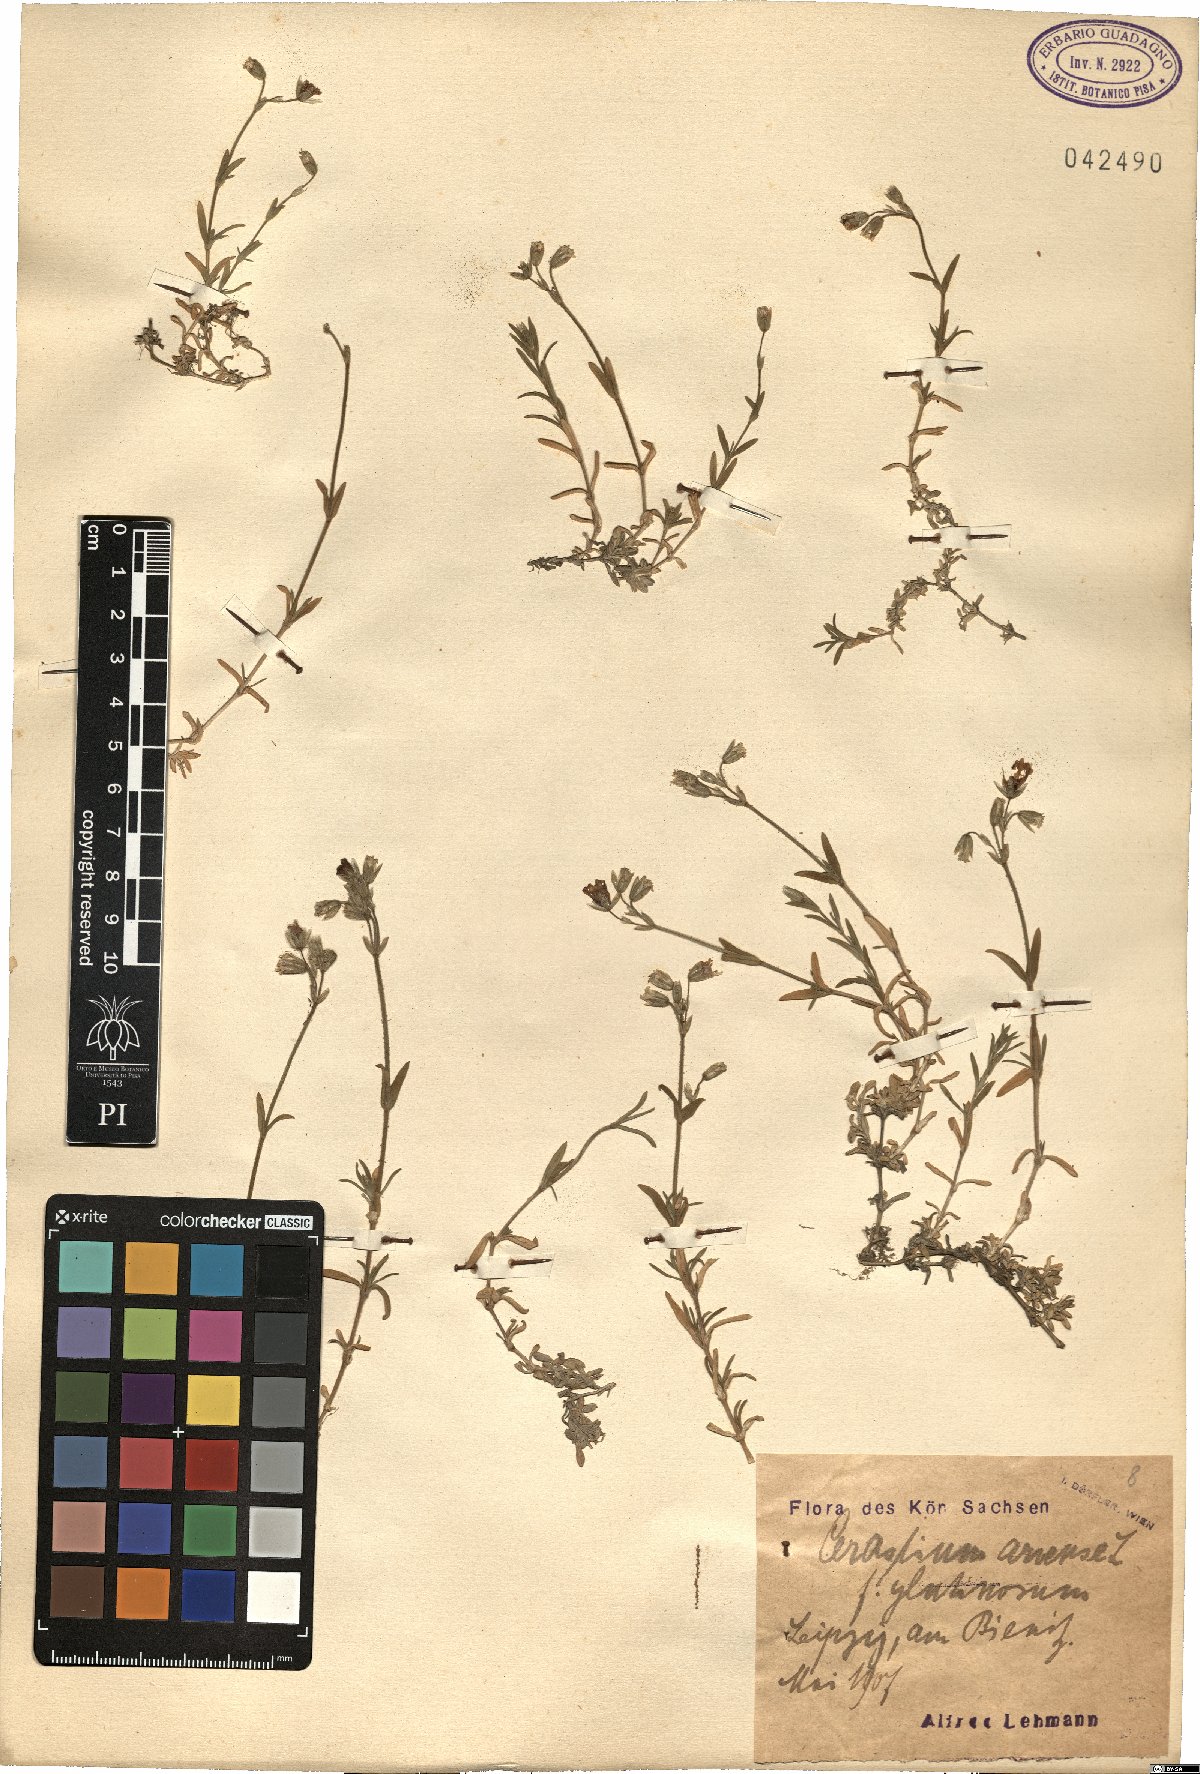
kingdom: Plantae
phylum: Tracheophyta
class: Magnoliopsida
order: Caryophyllales
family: Caryophyllaceae
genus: Cerastium
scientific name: Cerastium arvense
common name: Field mouse-ear
